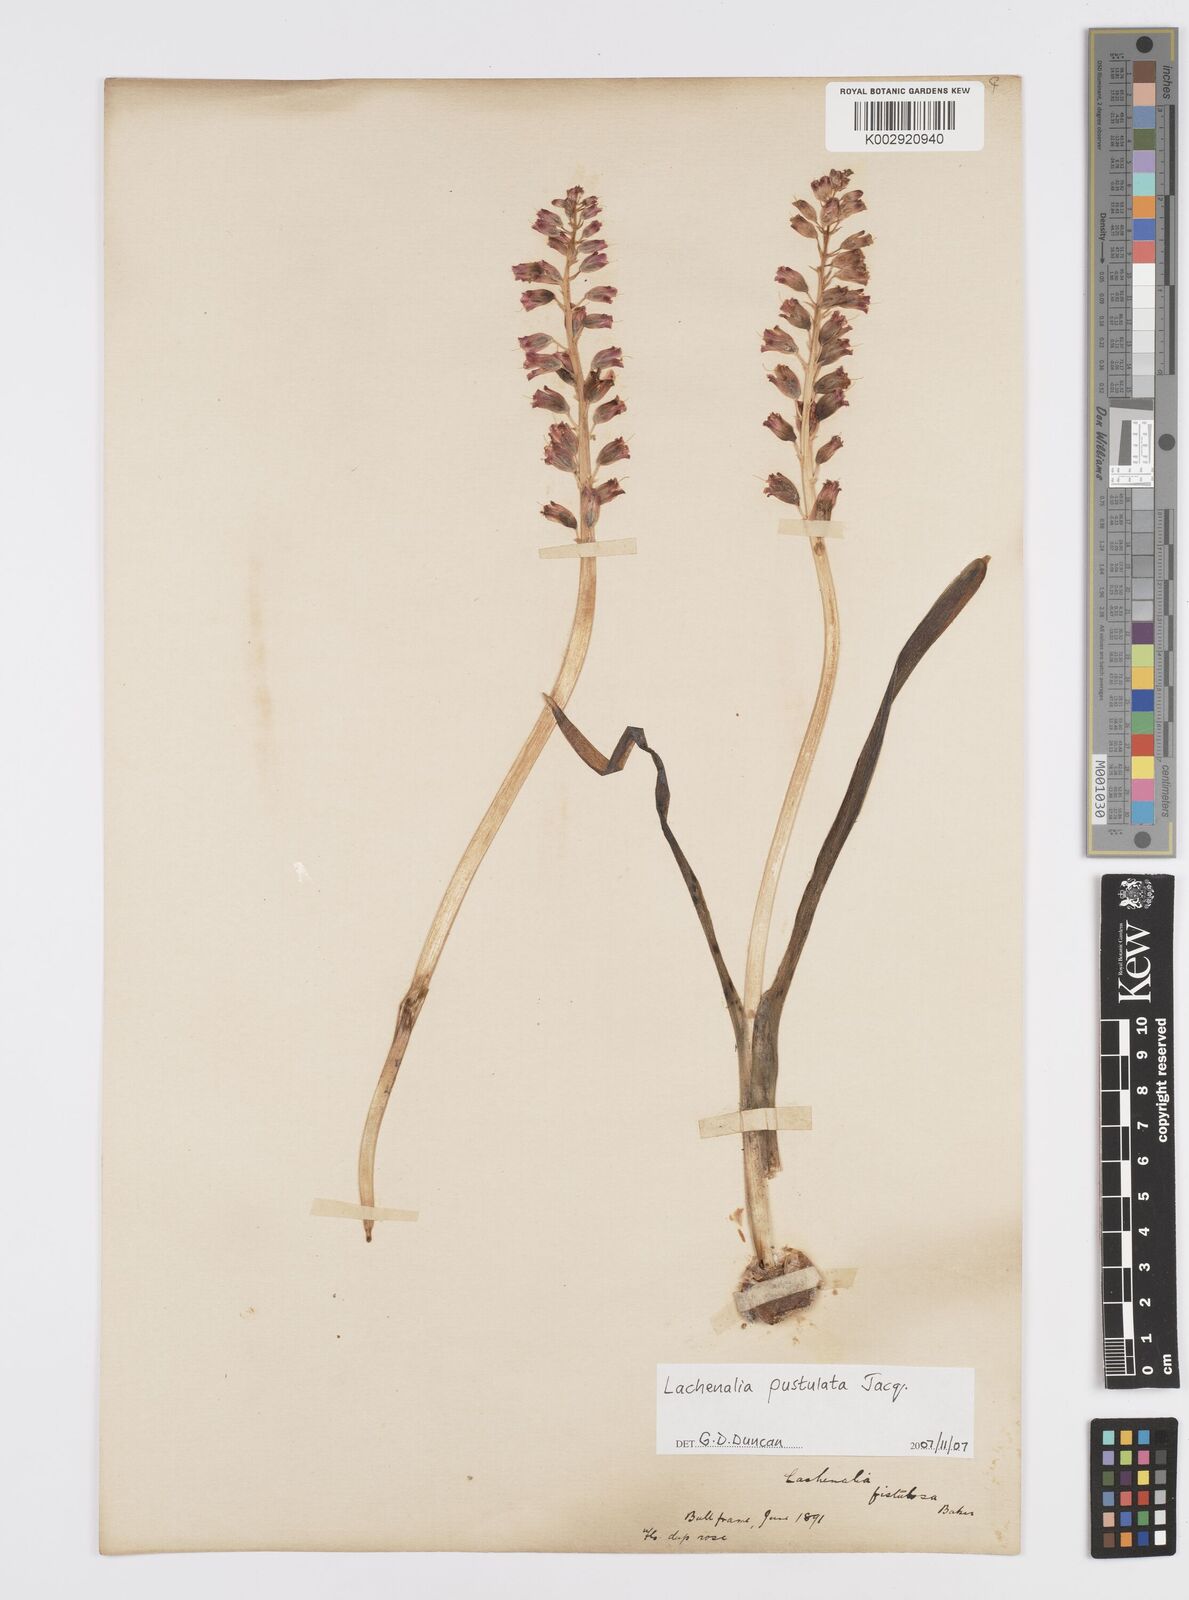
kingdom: Plantae
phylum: Tracheophyta
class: Liliopsida
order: Asparagales
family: Asparagaceae
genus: Lachenalia
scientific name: Lachenalia pallida
